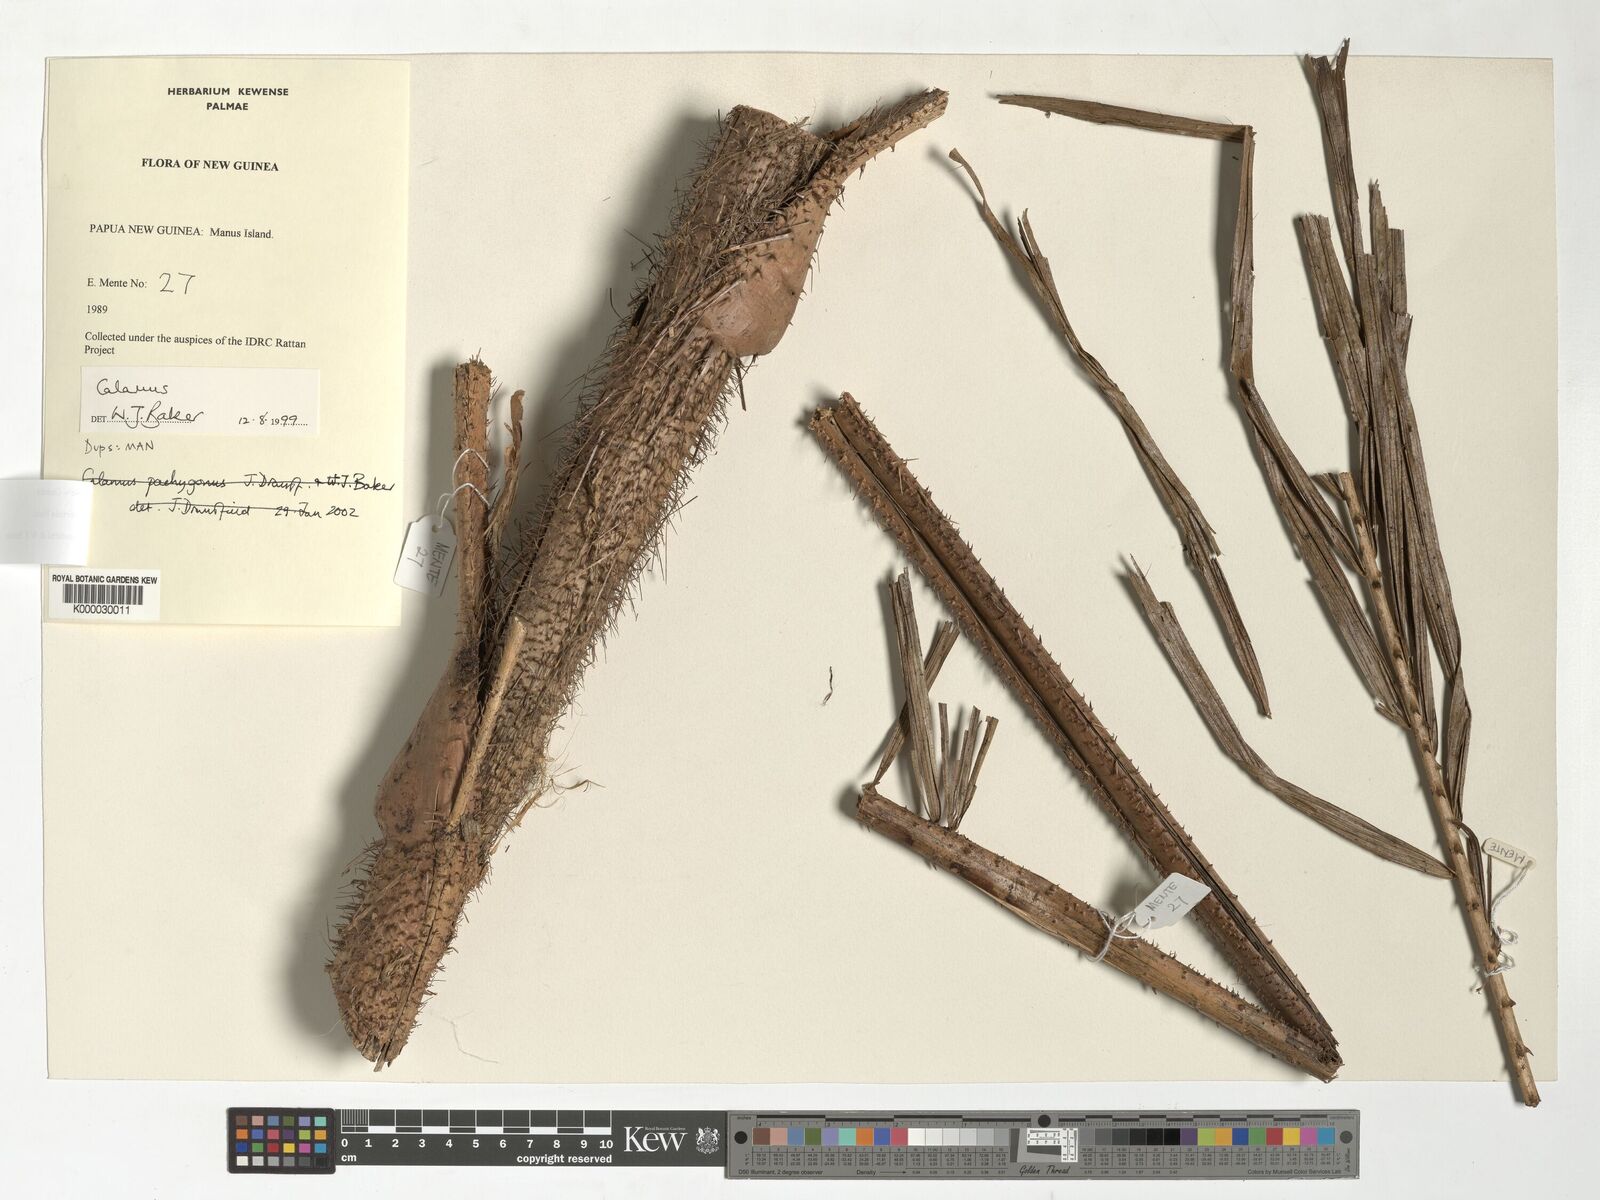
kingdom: Plantae
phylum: Tracheophyta
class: Liliopsida
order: Arecales
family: Arecaceae
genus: Calamus
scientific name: Calamus fertilis
